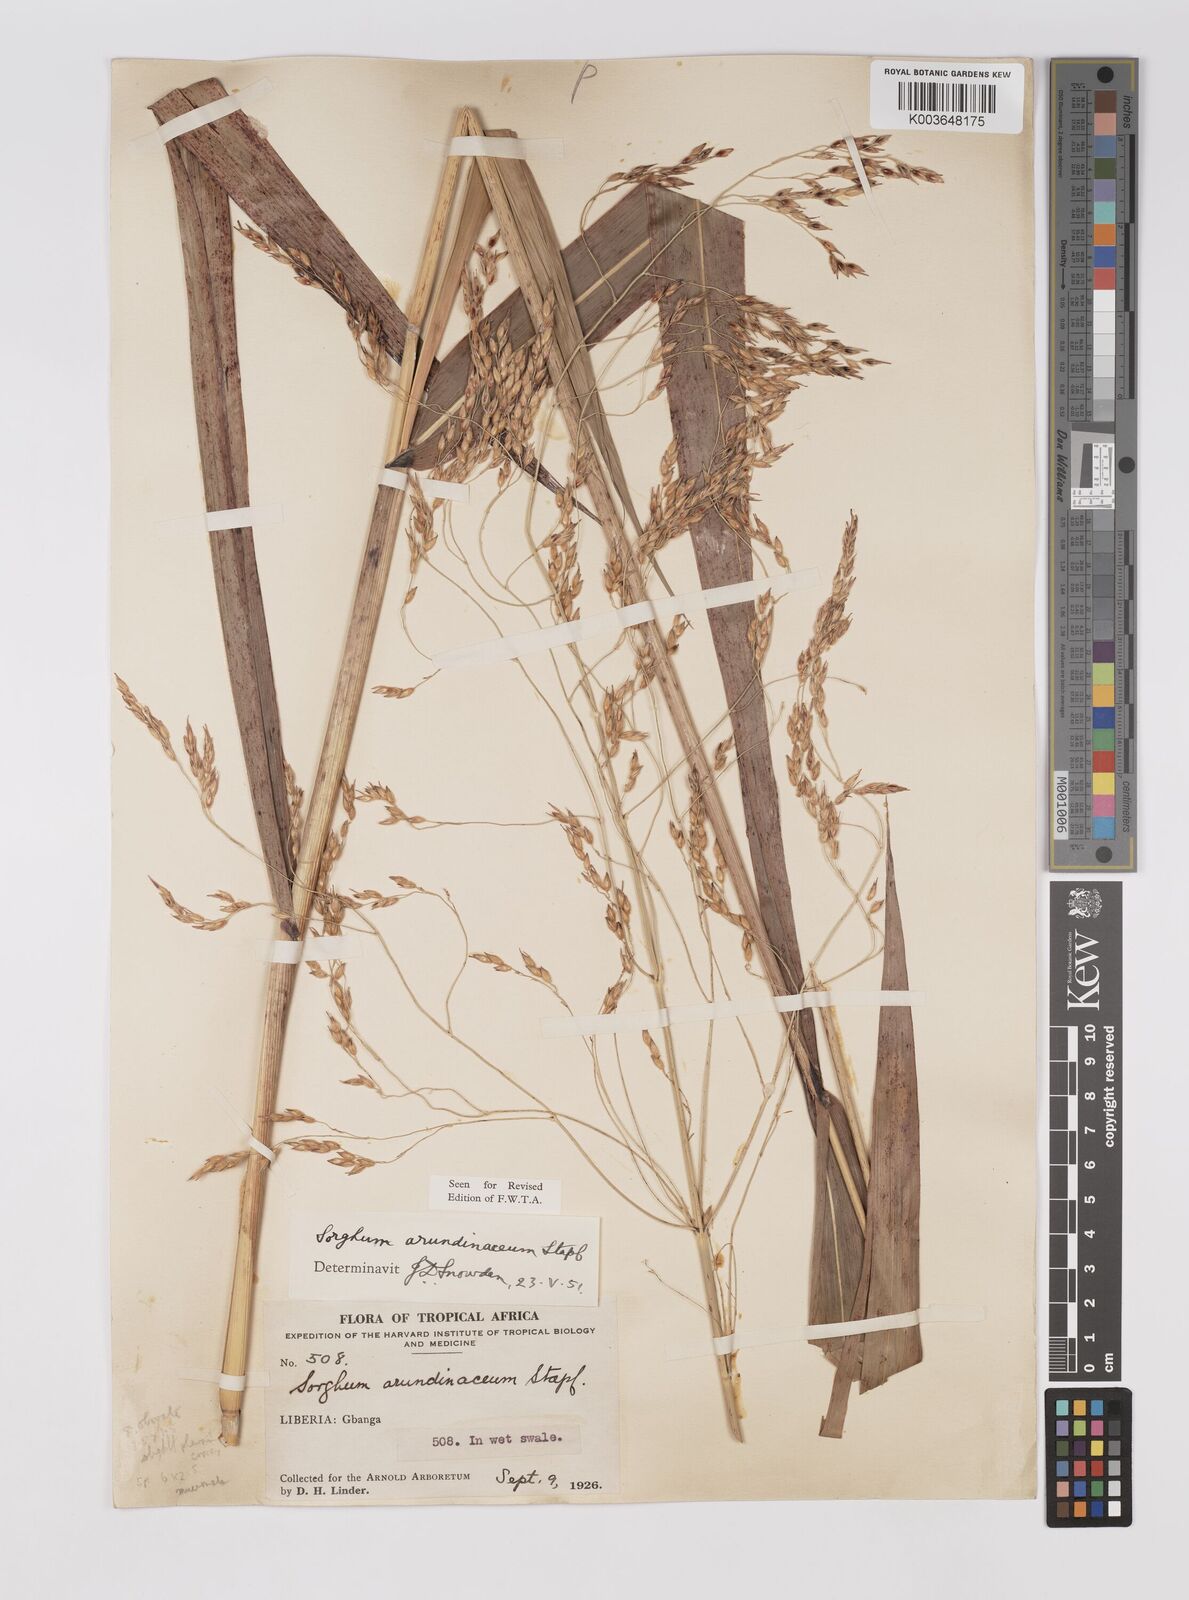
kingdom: Plantae
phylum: Tracheophyta
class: Liliopsida
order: Poales
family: Poaceae
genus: Sorghum
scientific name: Sorghum arundinaceum
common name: Sorghum
